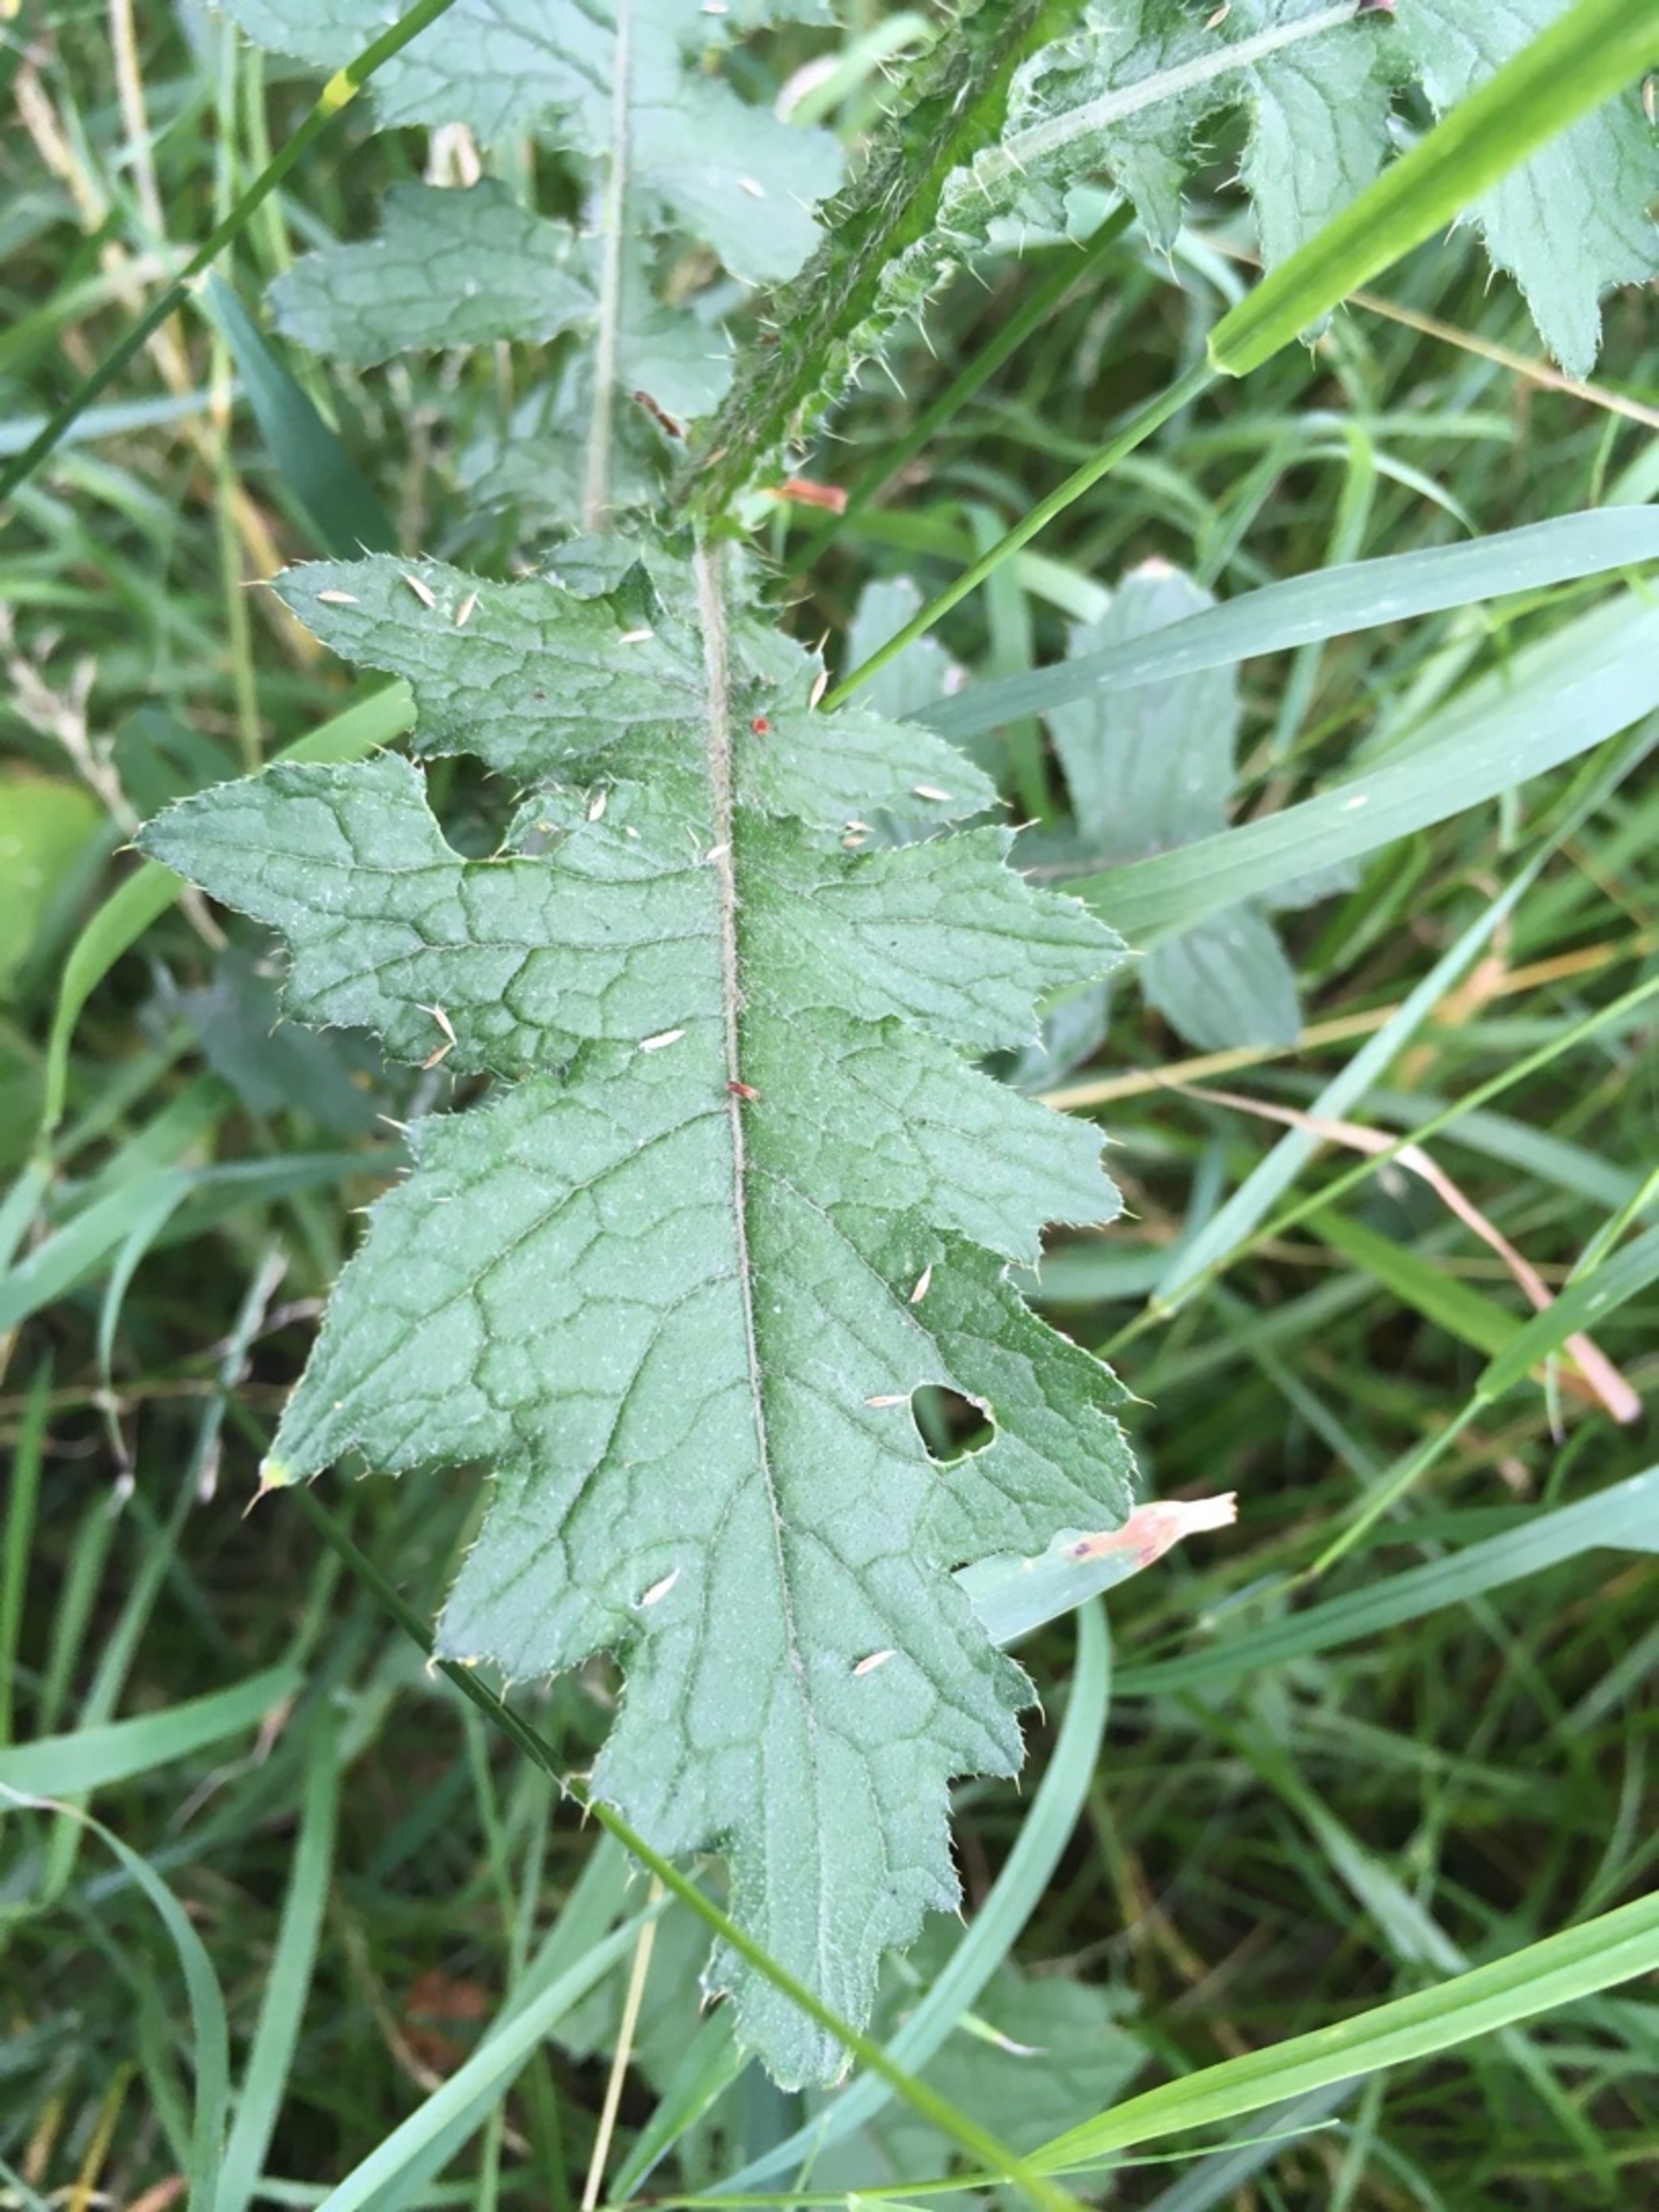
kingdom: Plantae
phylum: Tracheophyta
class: Magnoliopsida
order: Asterales
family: Asteraceae
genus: Carduus
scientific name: Carduus crispus
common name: Kruset tidsel
